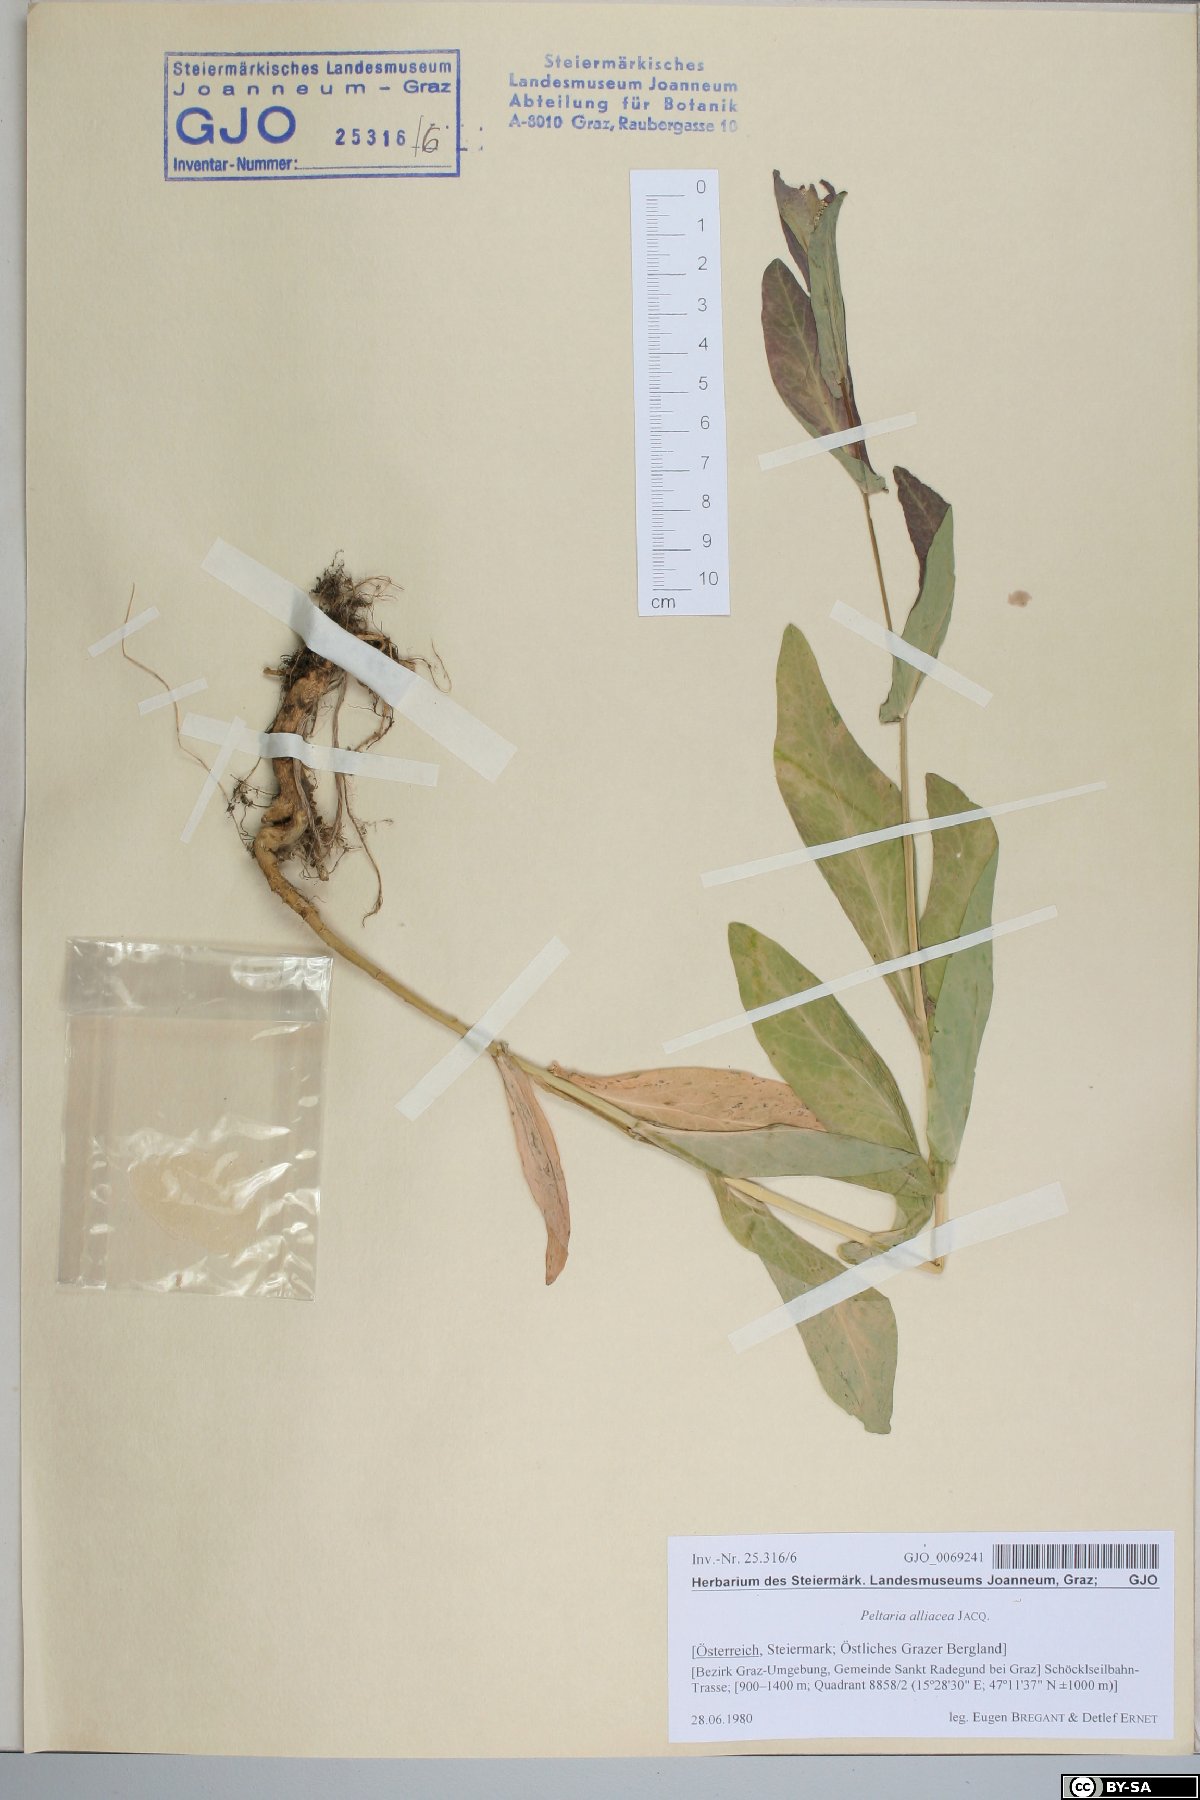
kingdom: Plantae
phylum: Tracheophyta
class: Magnoliopsida
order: Brassicales
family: Brassicaceae
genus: Peltaria
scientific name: Peltaria alliacea
